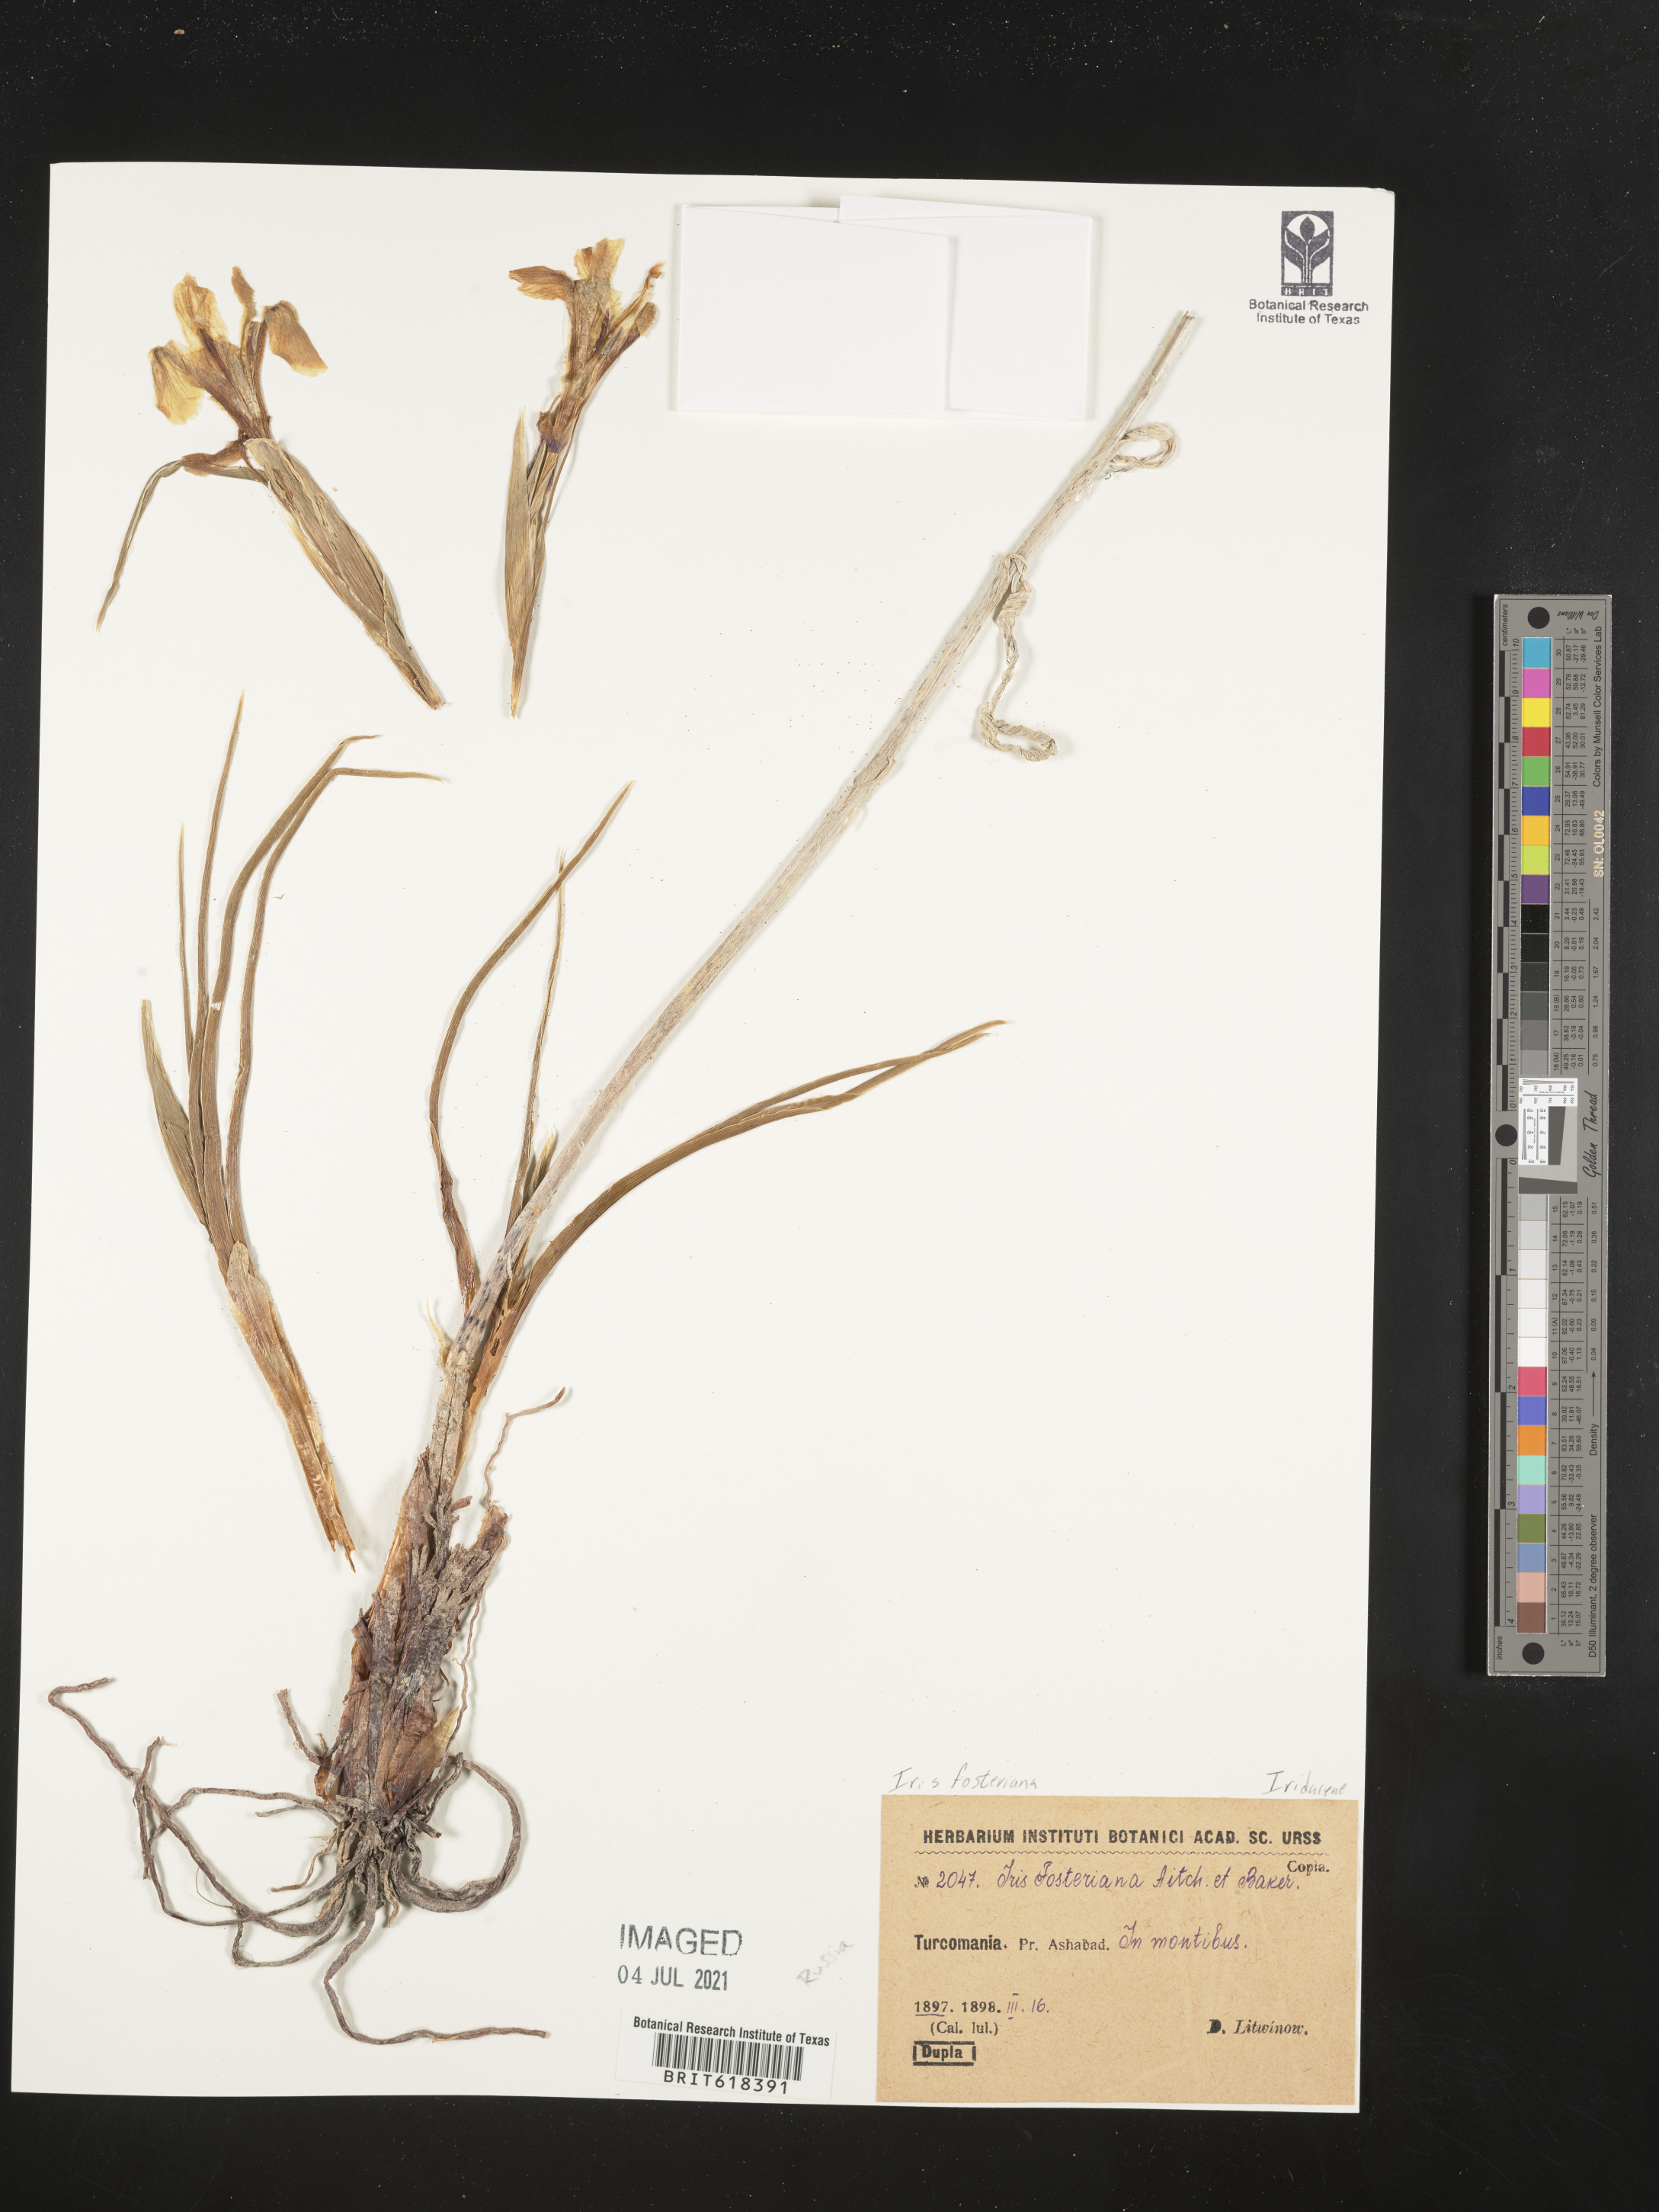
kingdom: Plantae
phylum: Tracheophyta
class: Liliopsida
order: Asparagales
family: Iridaceae
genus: Iris
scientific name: Iris fosteriana
